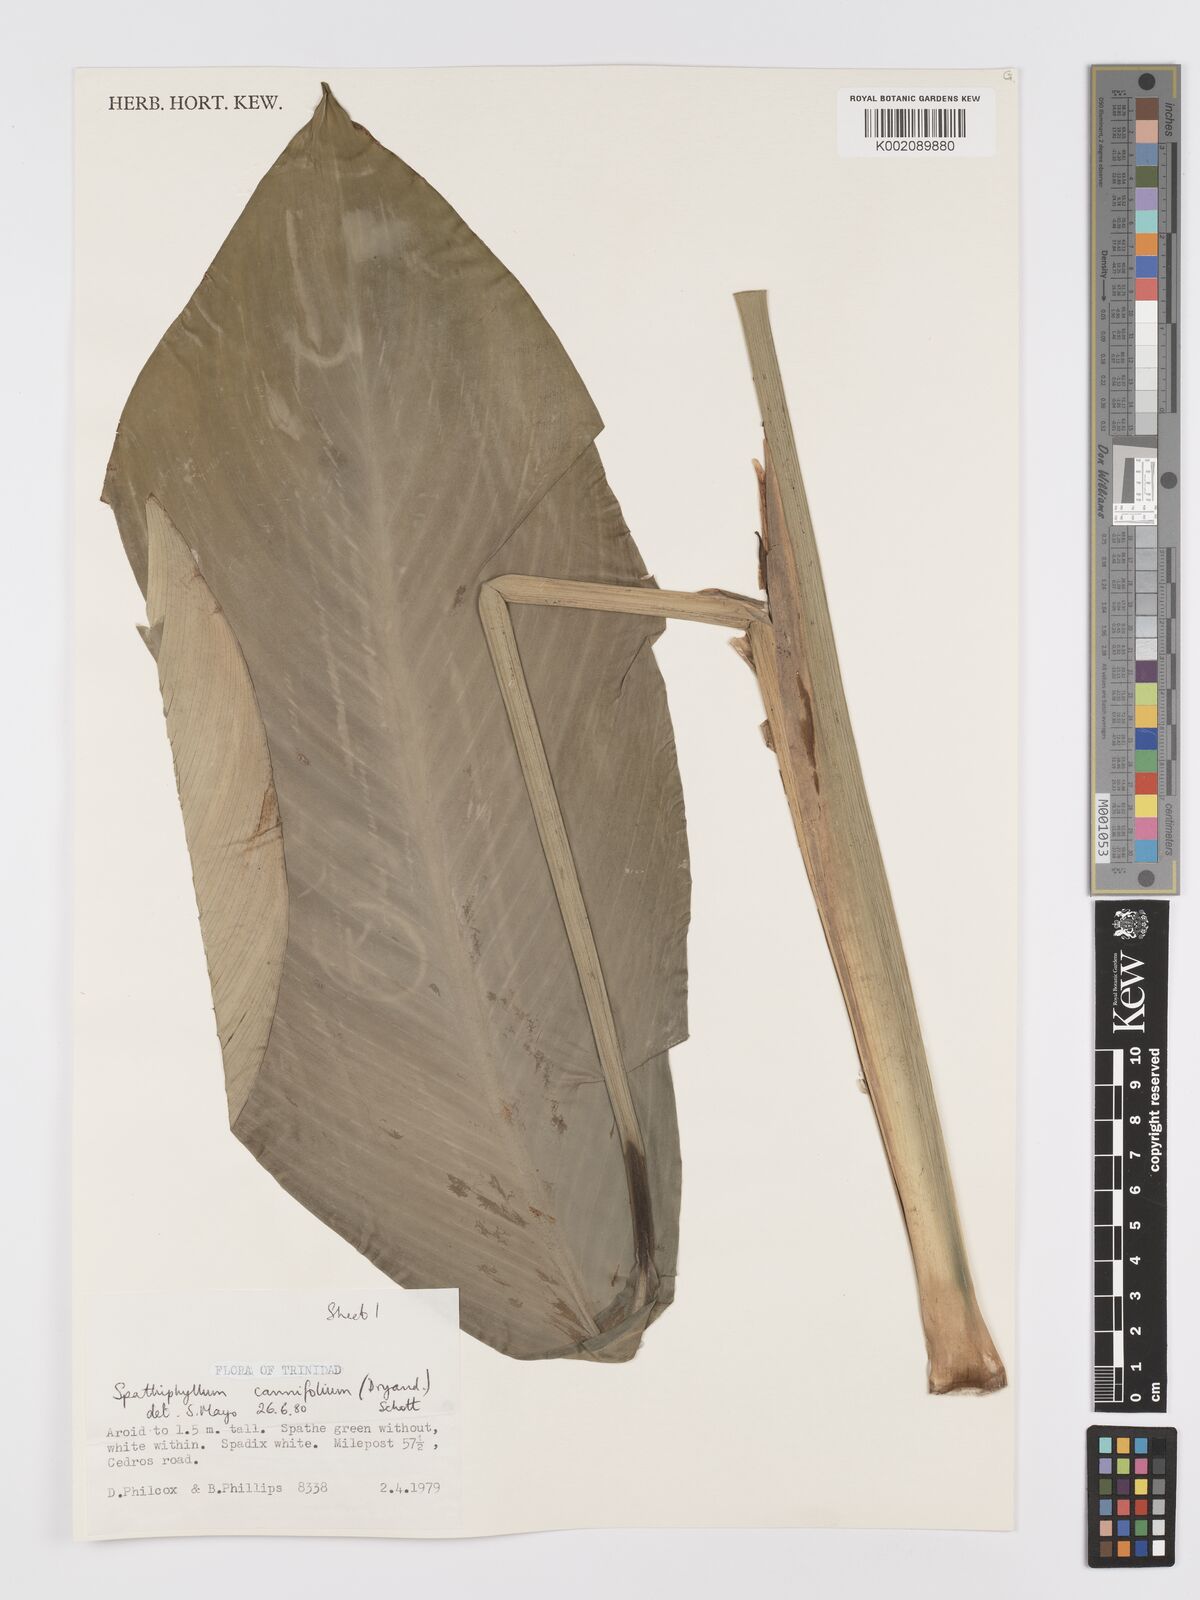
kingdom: Plantae
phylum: Tracheophyta
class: Liliopsida
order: Alismatales
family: Araceae
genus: Spathiphyllum
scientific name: Spathiphyllum cannifolium
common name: Spatheflower
